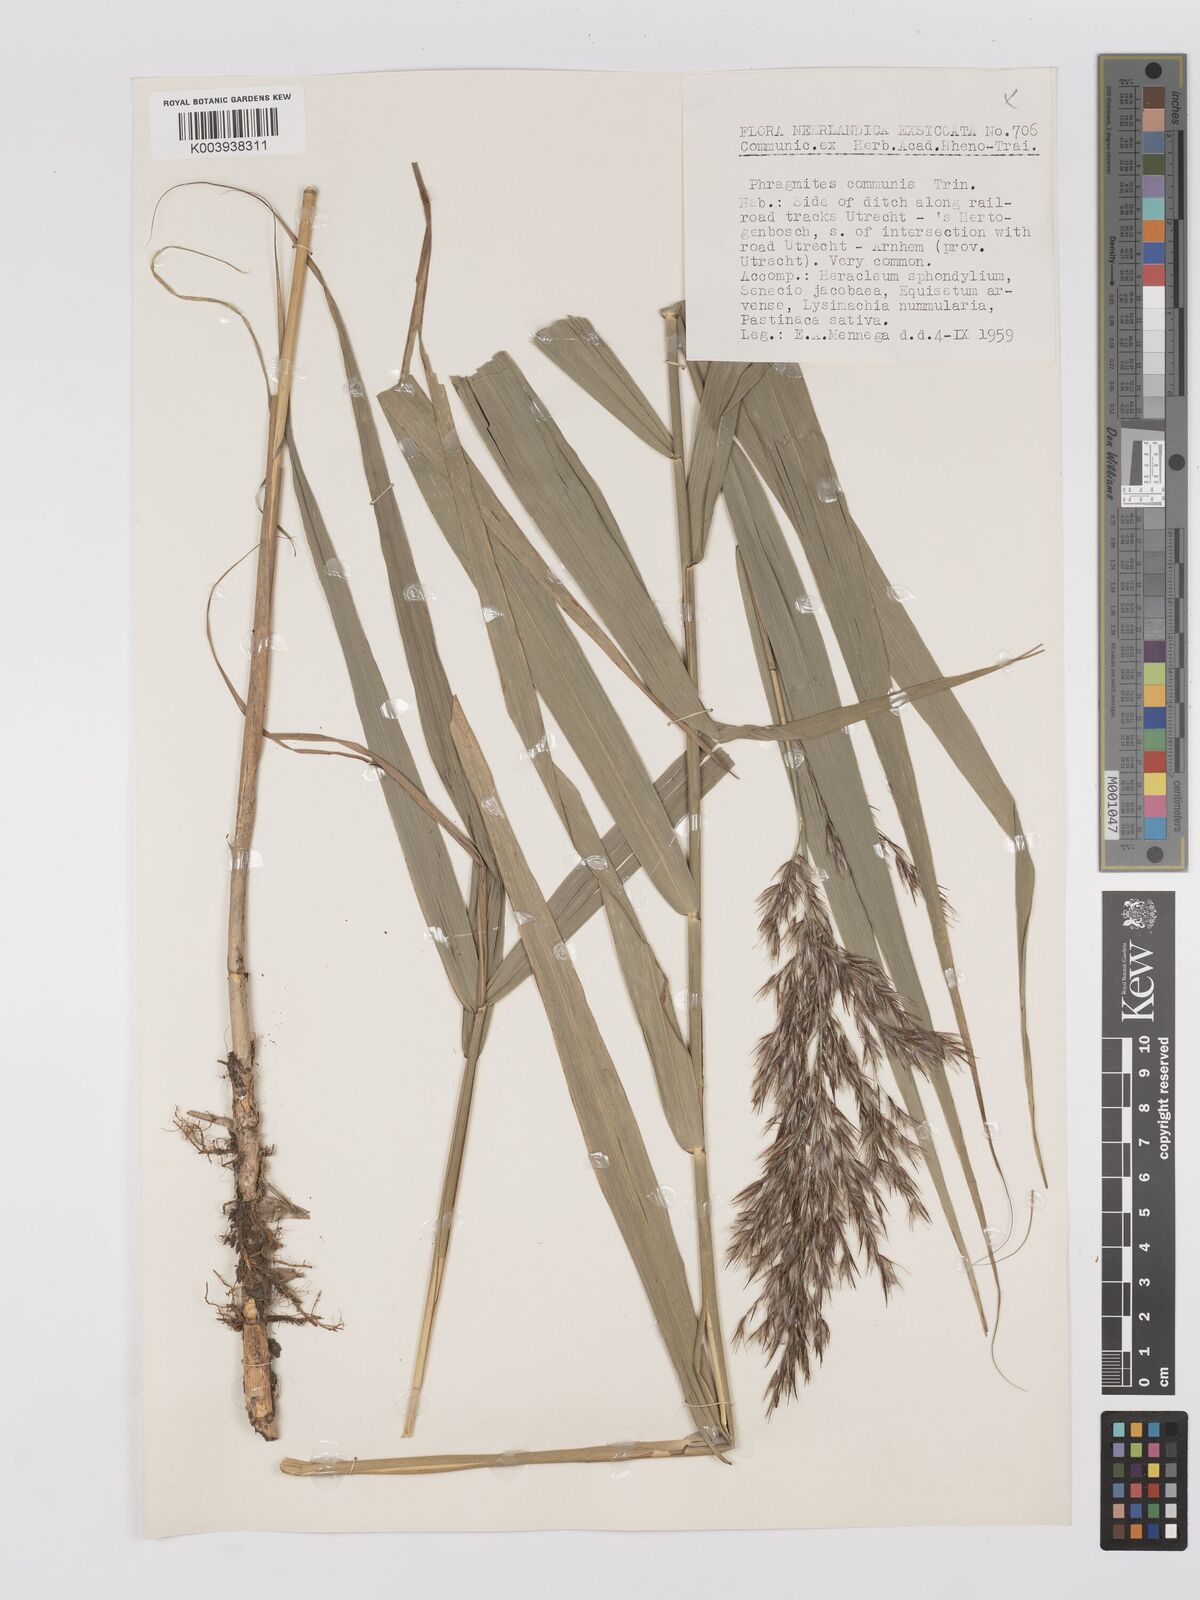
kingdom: Plantae
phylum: Tracheophyta
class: Liliopsida
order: Poales
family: Poaceae
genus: Phragmites
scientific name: Phragmites australis
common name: Common reed
